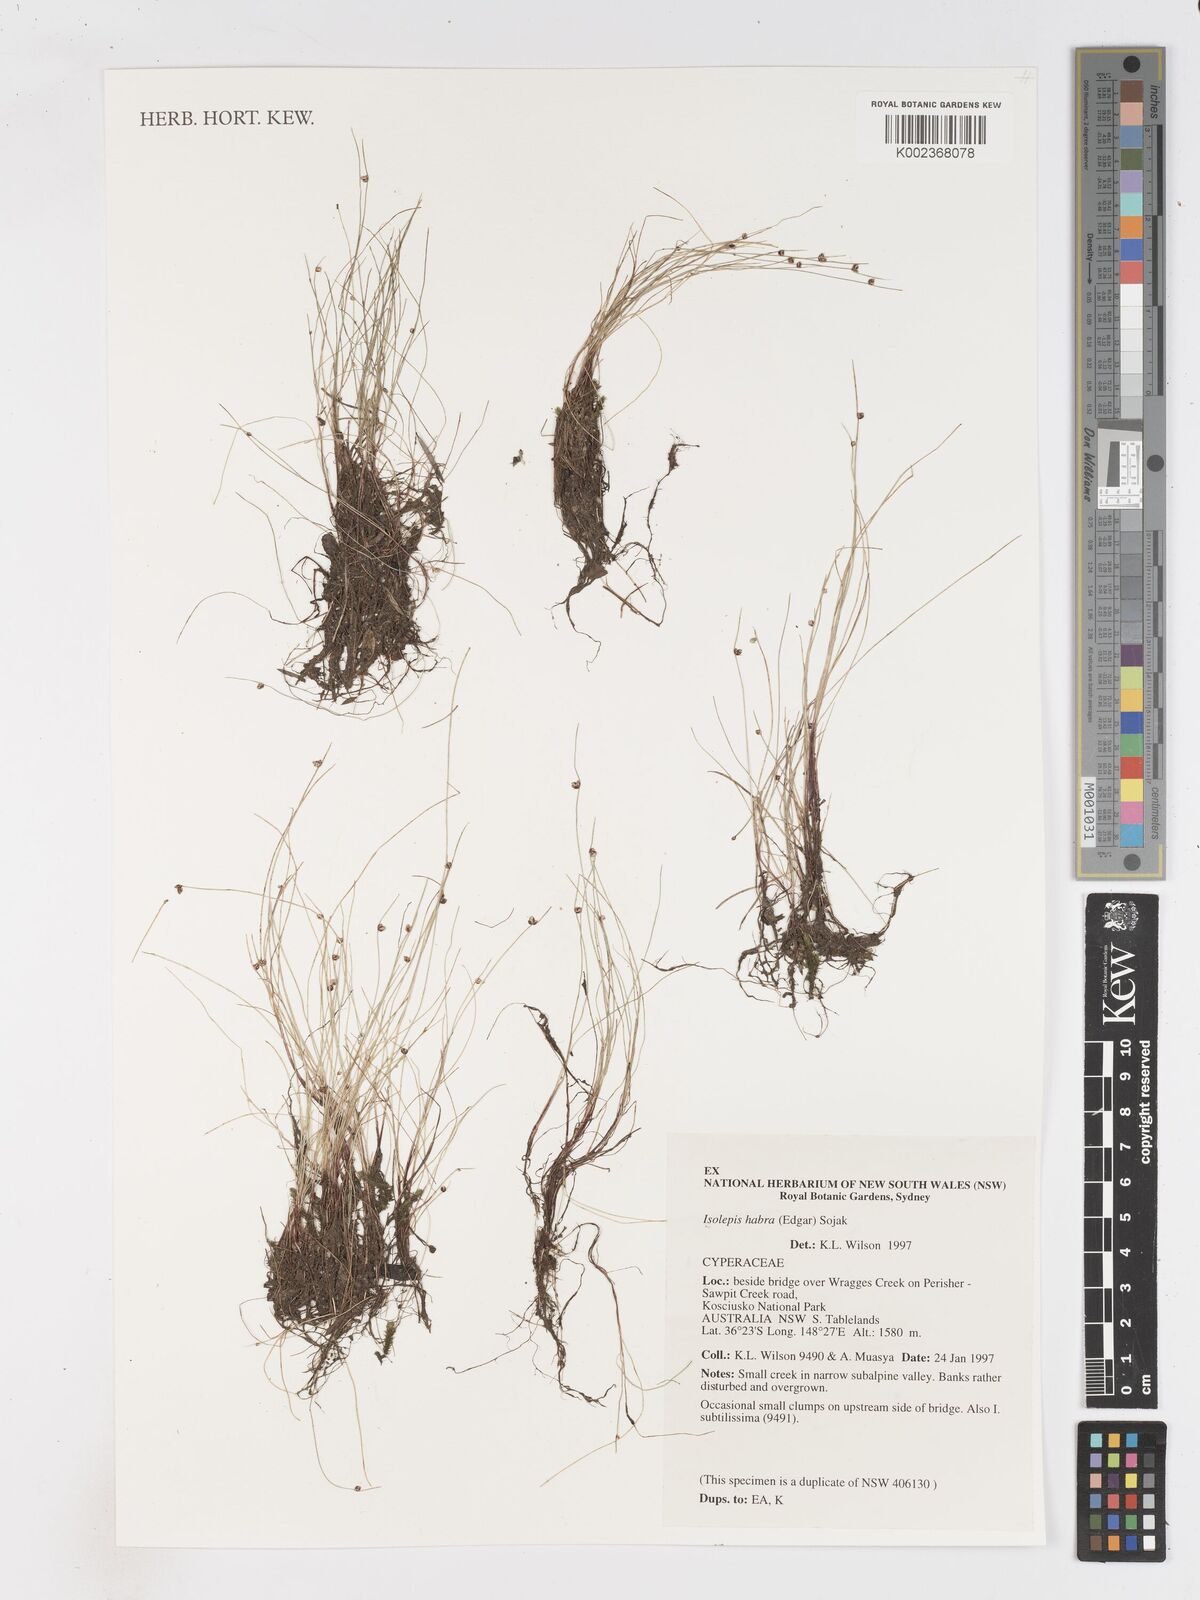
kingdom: Plantae
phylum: Tracheophyta
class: Liliopsida
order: Poales
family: Cyperaceae
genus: Isolepis
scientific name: Isolepis habra
